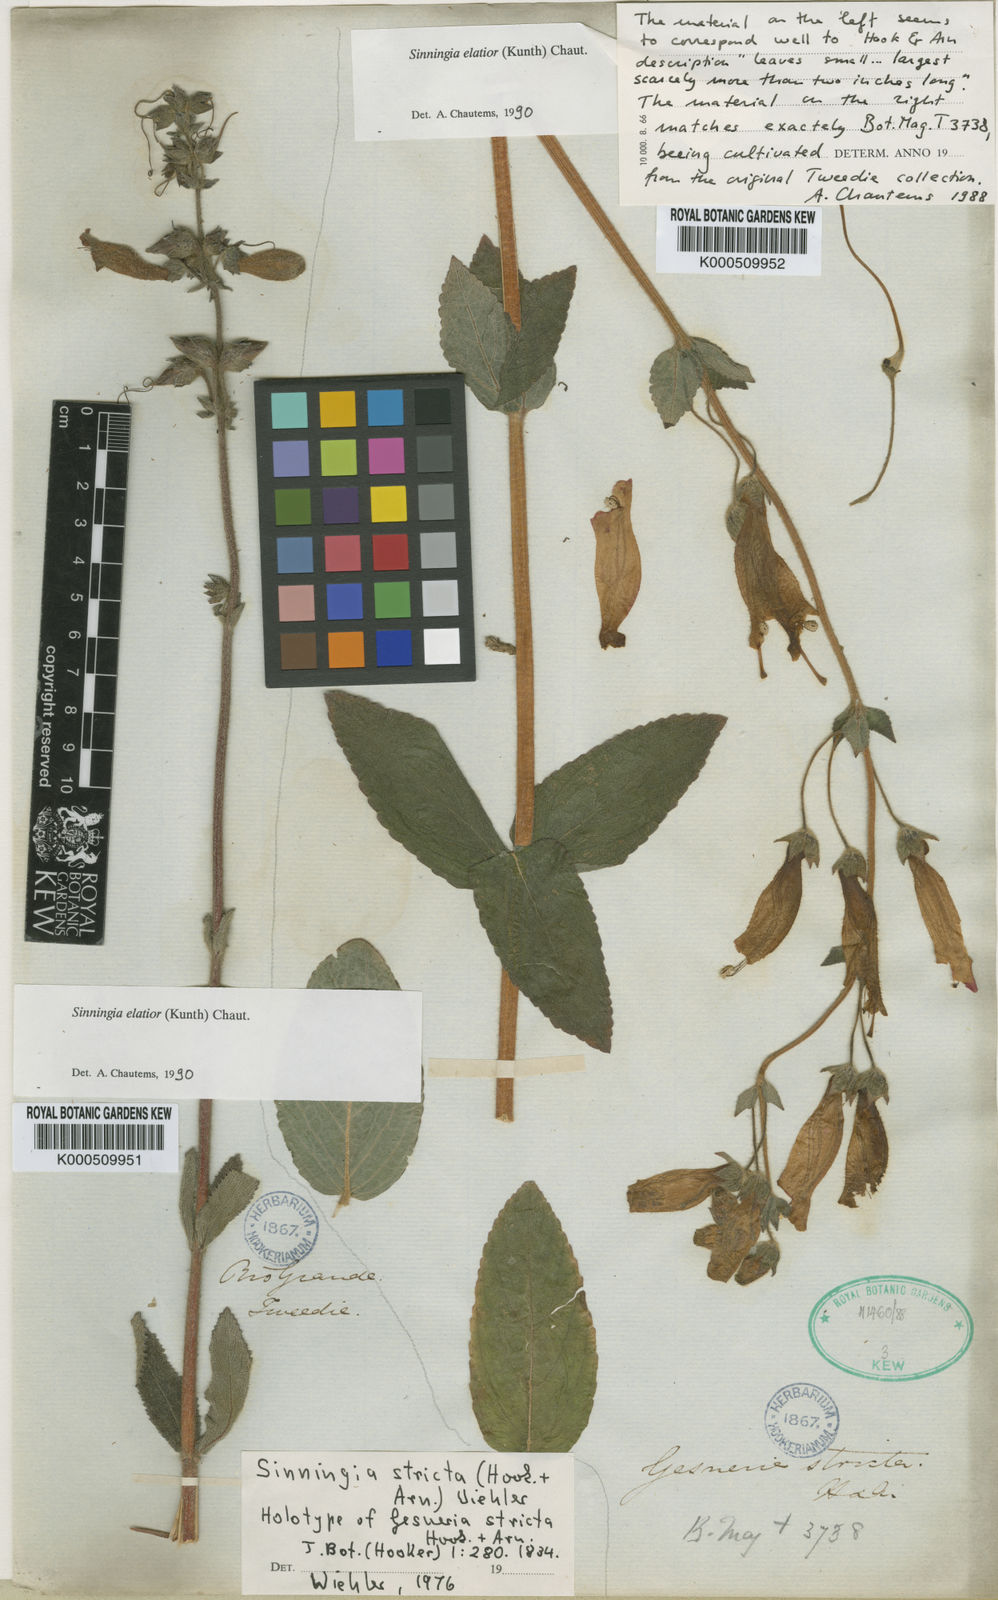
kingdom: Plantae
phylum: Tracheophyta
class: Magnoliopsida
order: Lamiales
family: Gesneriaceae
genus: Sinningia
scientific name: Sinningia elatior
